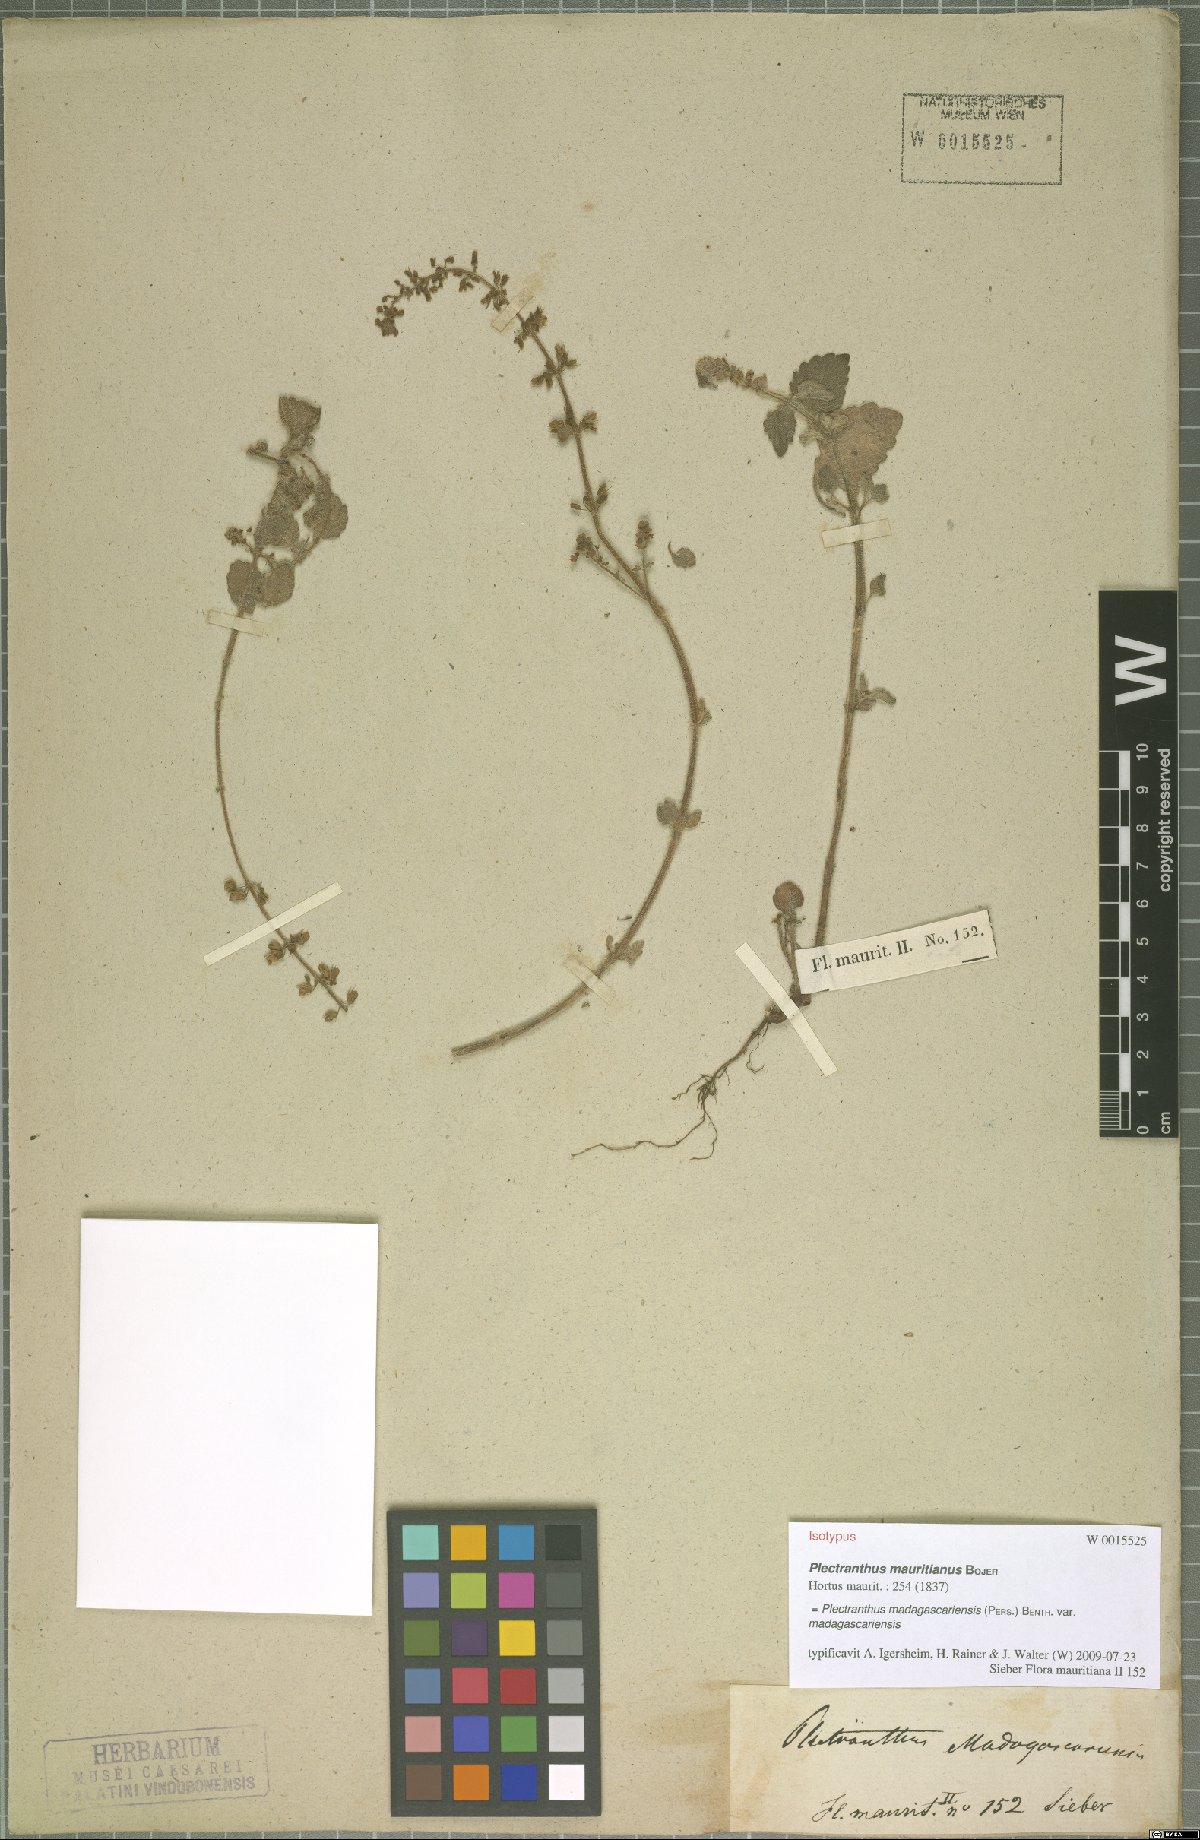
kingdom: Plantae
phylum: Tracheophyta
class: Magnoliopsida
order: Lamiales
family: Lamiaceae
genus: Coleus
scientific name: Coleus madagascariensis
